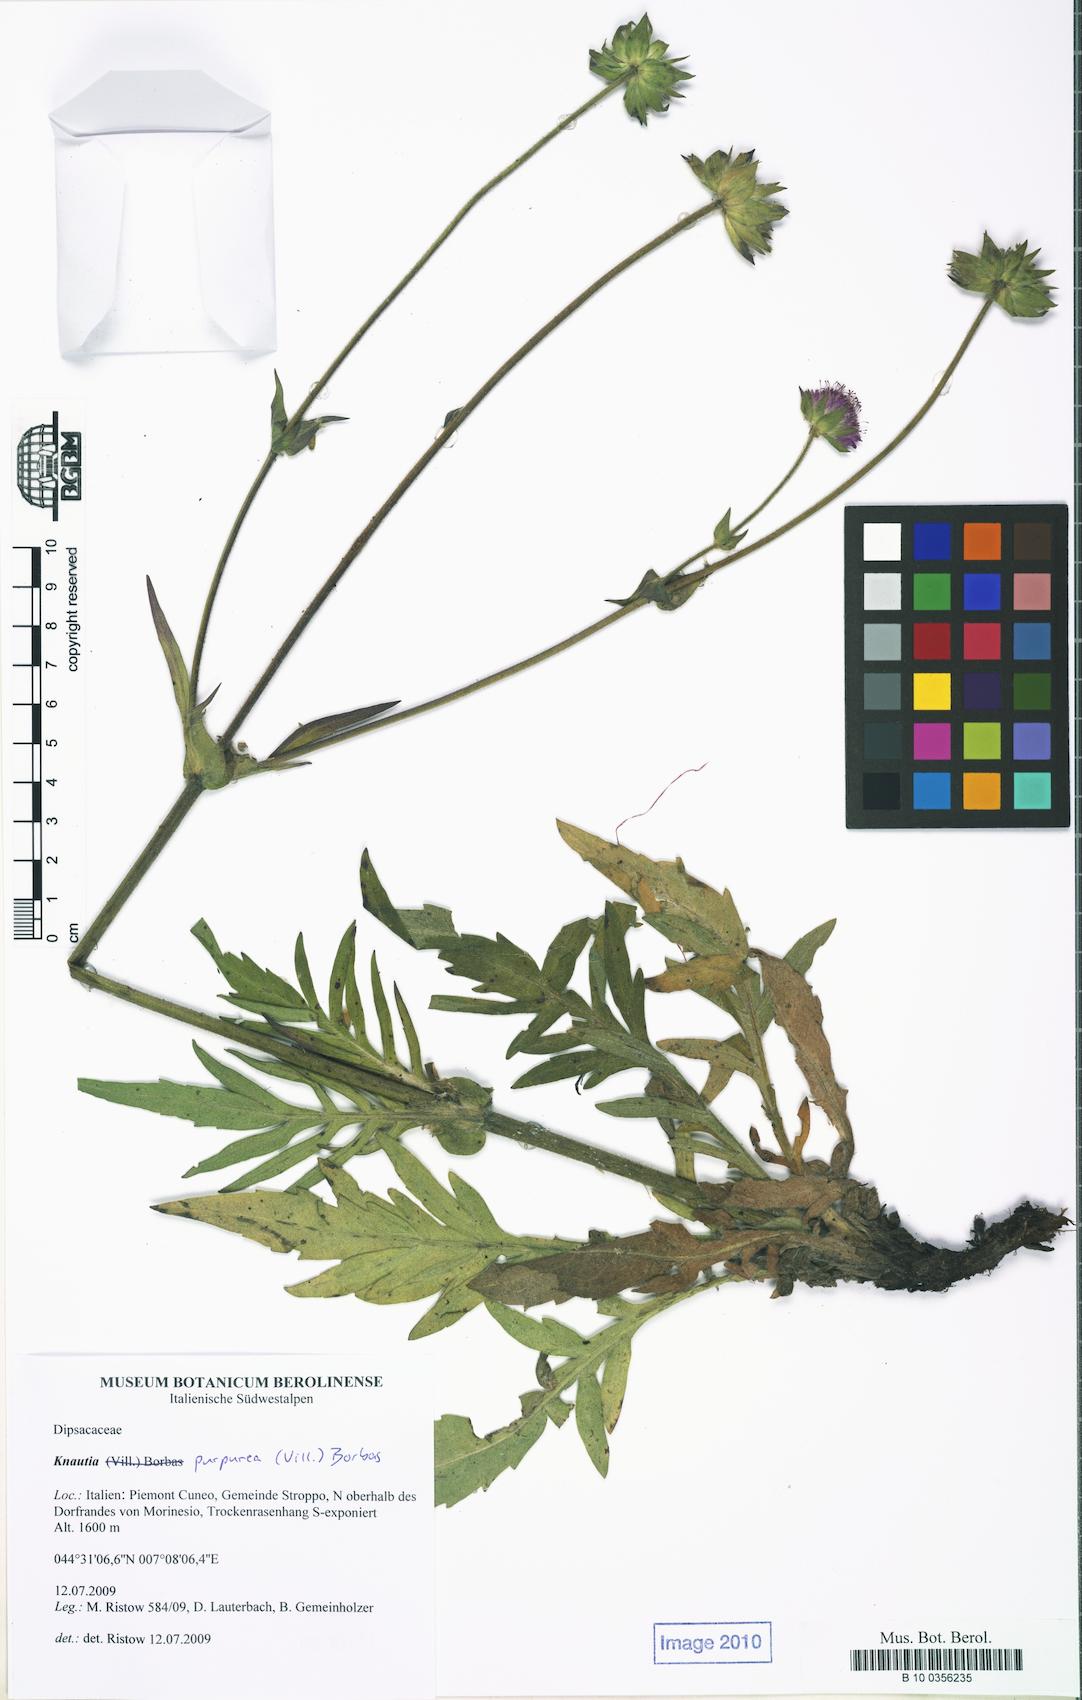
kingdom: Plantae
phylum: Tracheophyta
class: Magnoliopsida
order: Dipsacales
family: Caprifoliaceae
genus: Knautia
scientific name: Knautia collina
